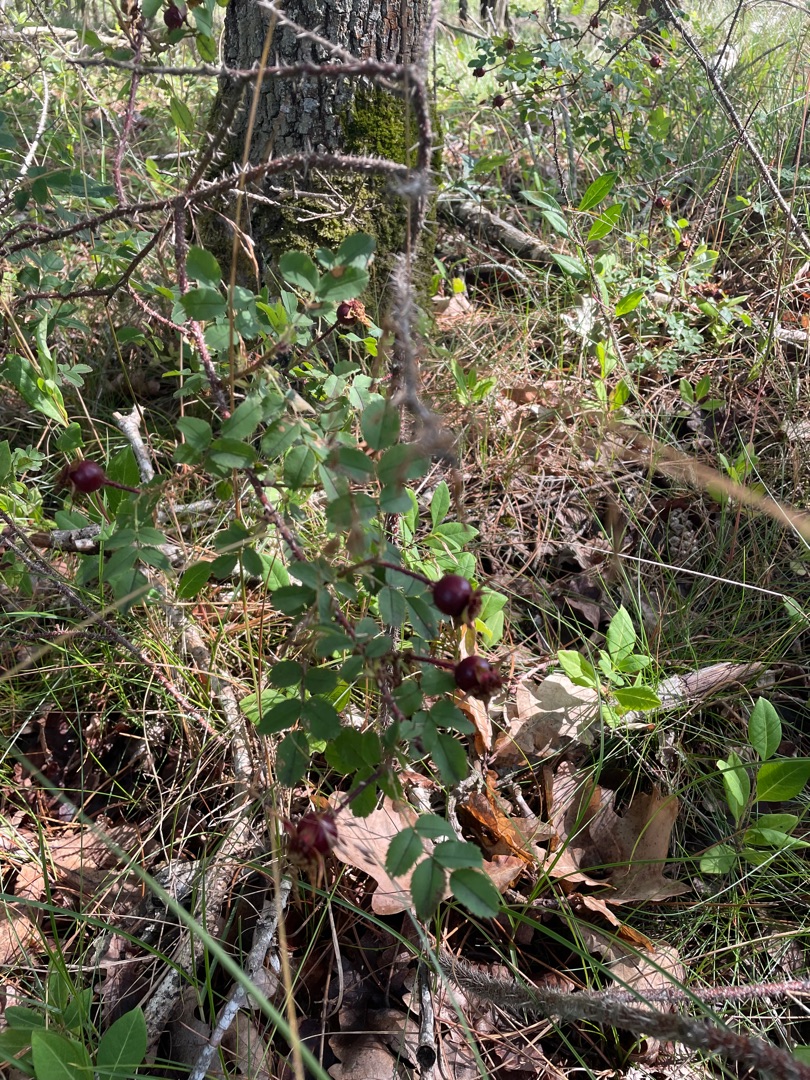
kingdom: Plantae
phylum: Tracheophyta
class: Magnoliopsida
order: Rosales
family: Rosaceae
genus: Rosa
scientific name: Rosa spinosissima
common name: Klit-rose
